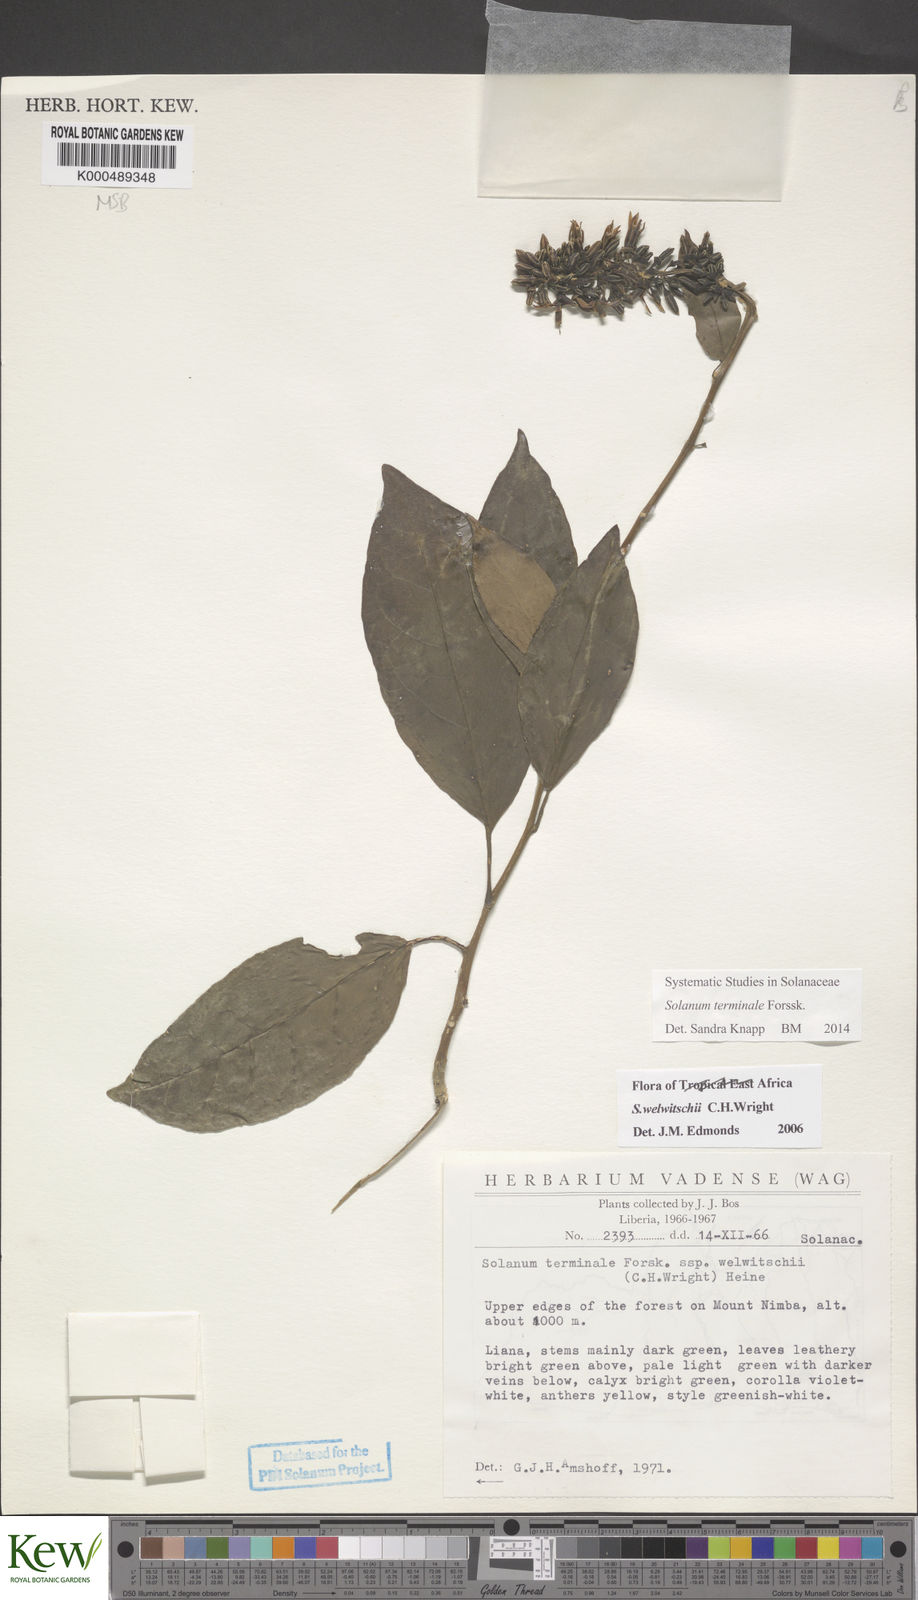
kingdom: Plantae
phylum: Tracheophyta
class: Magnoliopsida
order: Solanales
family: Solanaceae
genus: Solanum
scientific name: Solanum terminale
